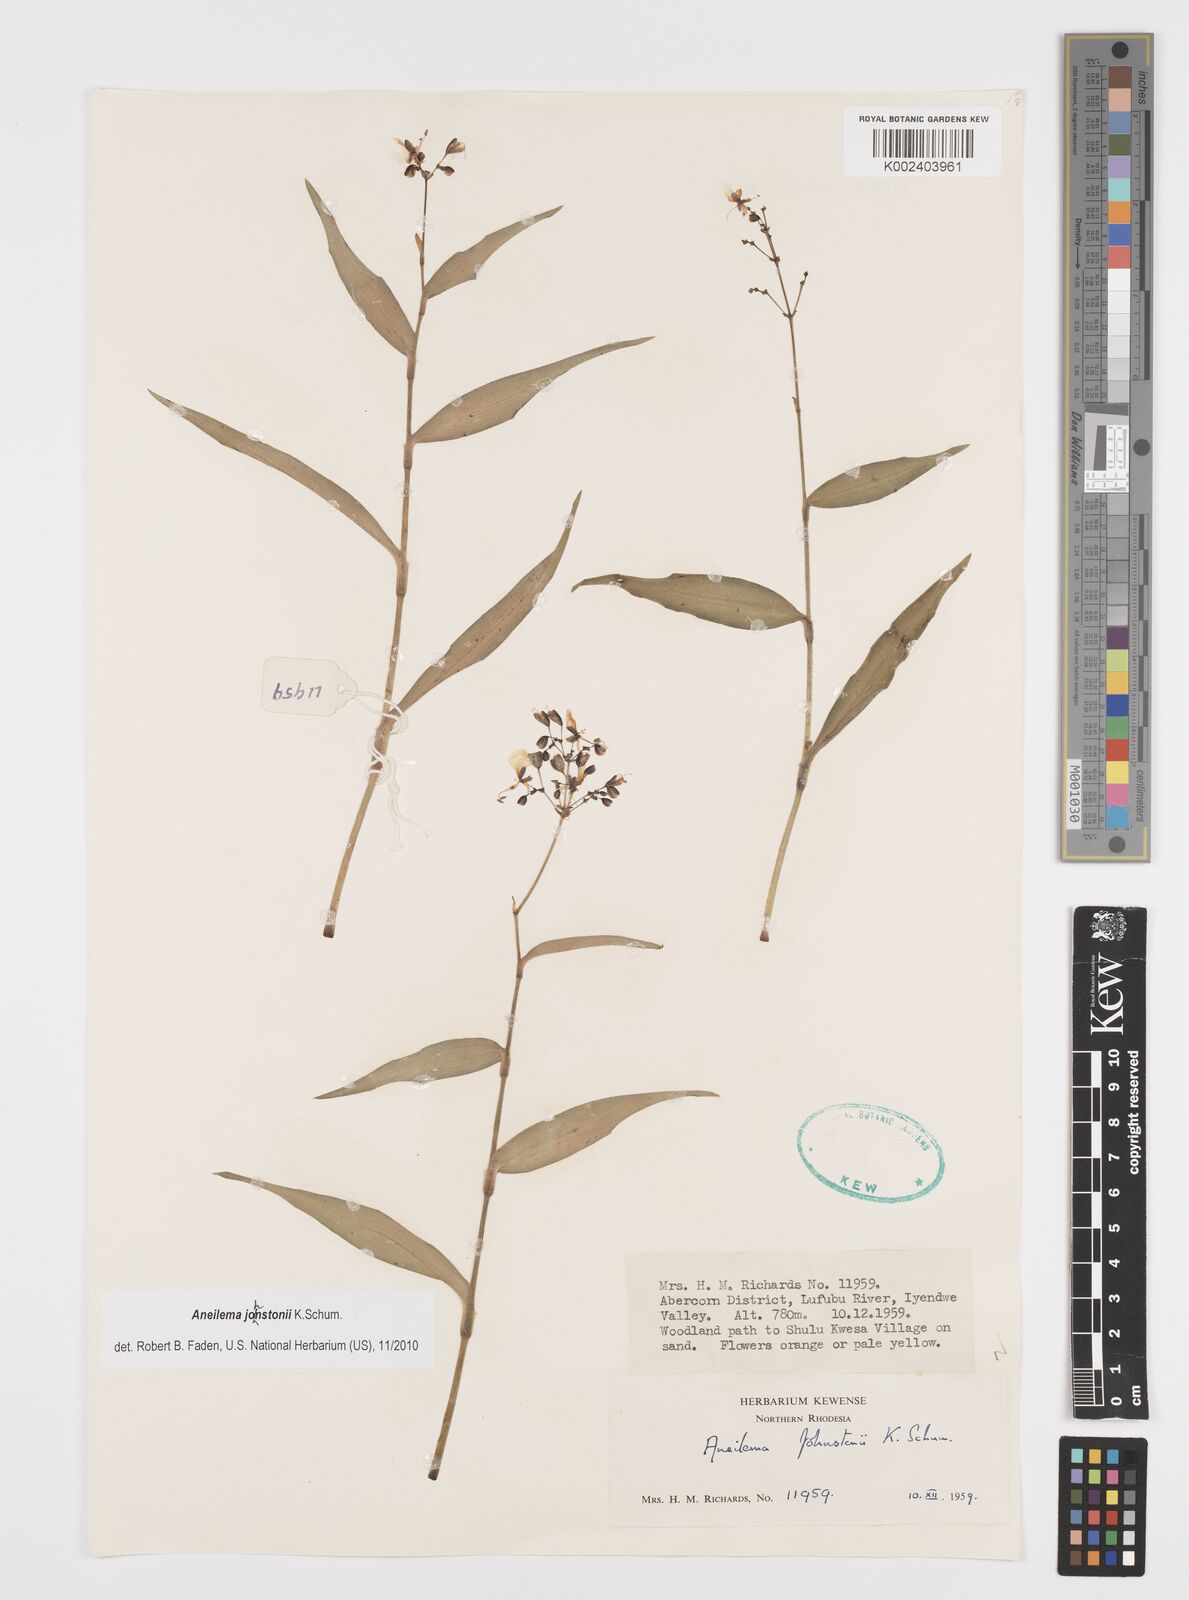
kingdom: Plantae
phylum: Tracheophyta
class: Liliopsida
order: Commelinales
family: Commelinaceae
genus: Aneilema
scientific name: Aneilema johnstonii
